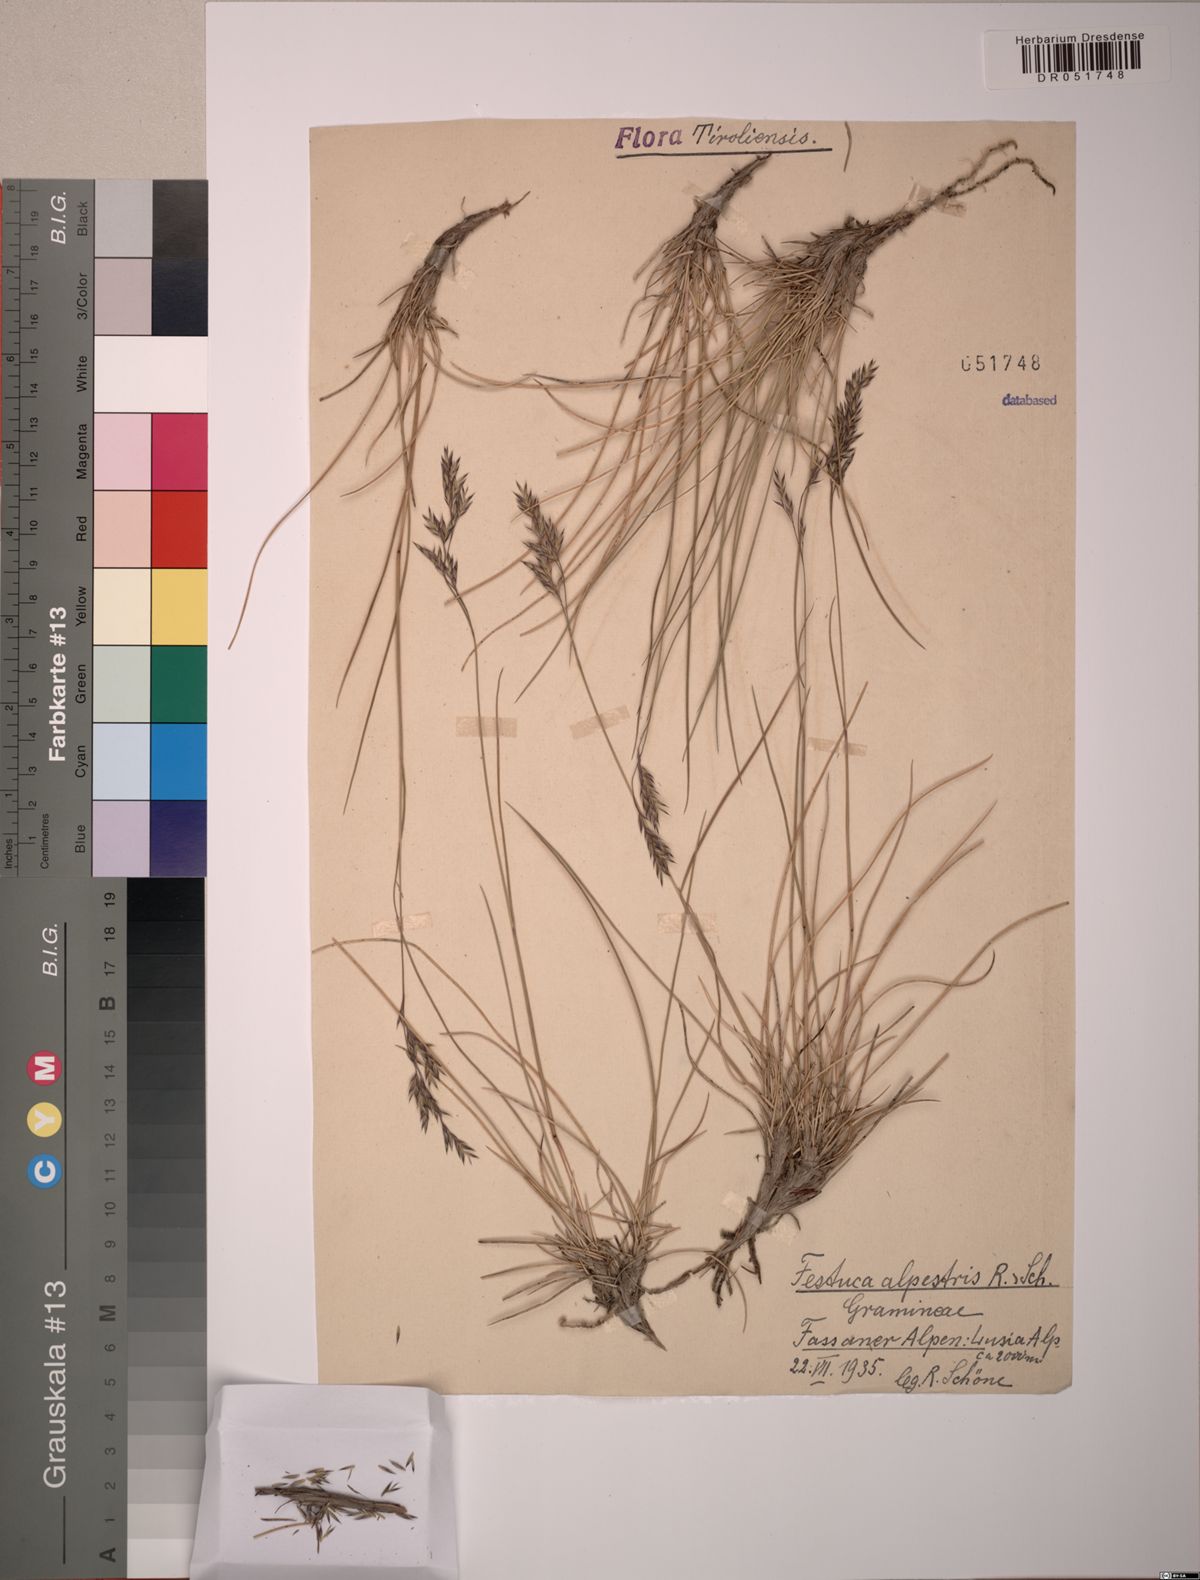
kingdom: Plantae
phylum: Tracheophyta
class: Liliopsida
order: Poales
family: Poaceae
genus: Festuca
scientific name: Festuca alpestris
